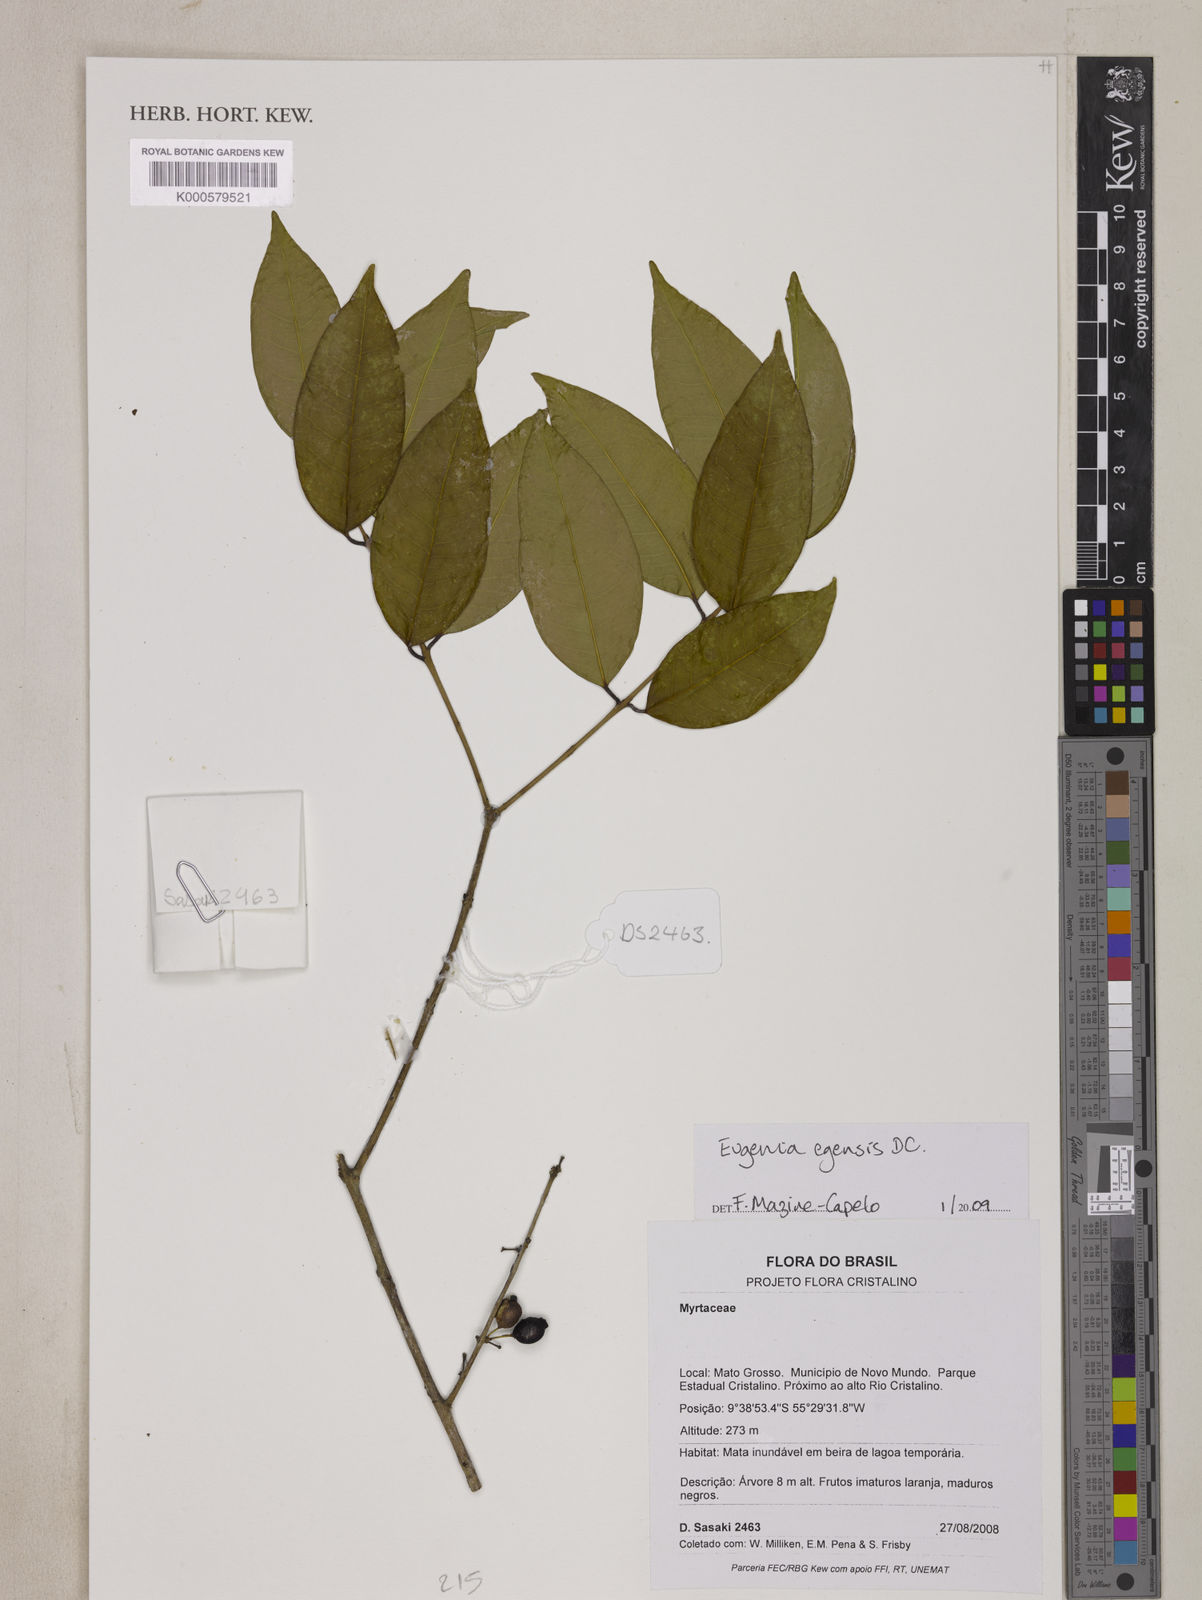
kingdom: Plantae
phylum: Tracheophyta
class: Magnoliopsida
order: Myrtales
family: Myrtaceae
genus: Eugenia
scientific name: Eugenia egensis
